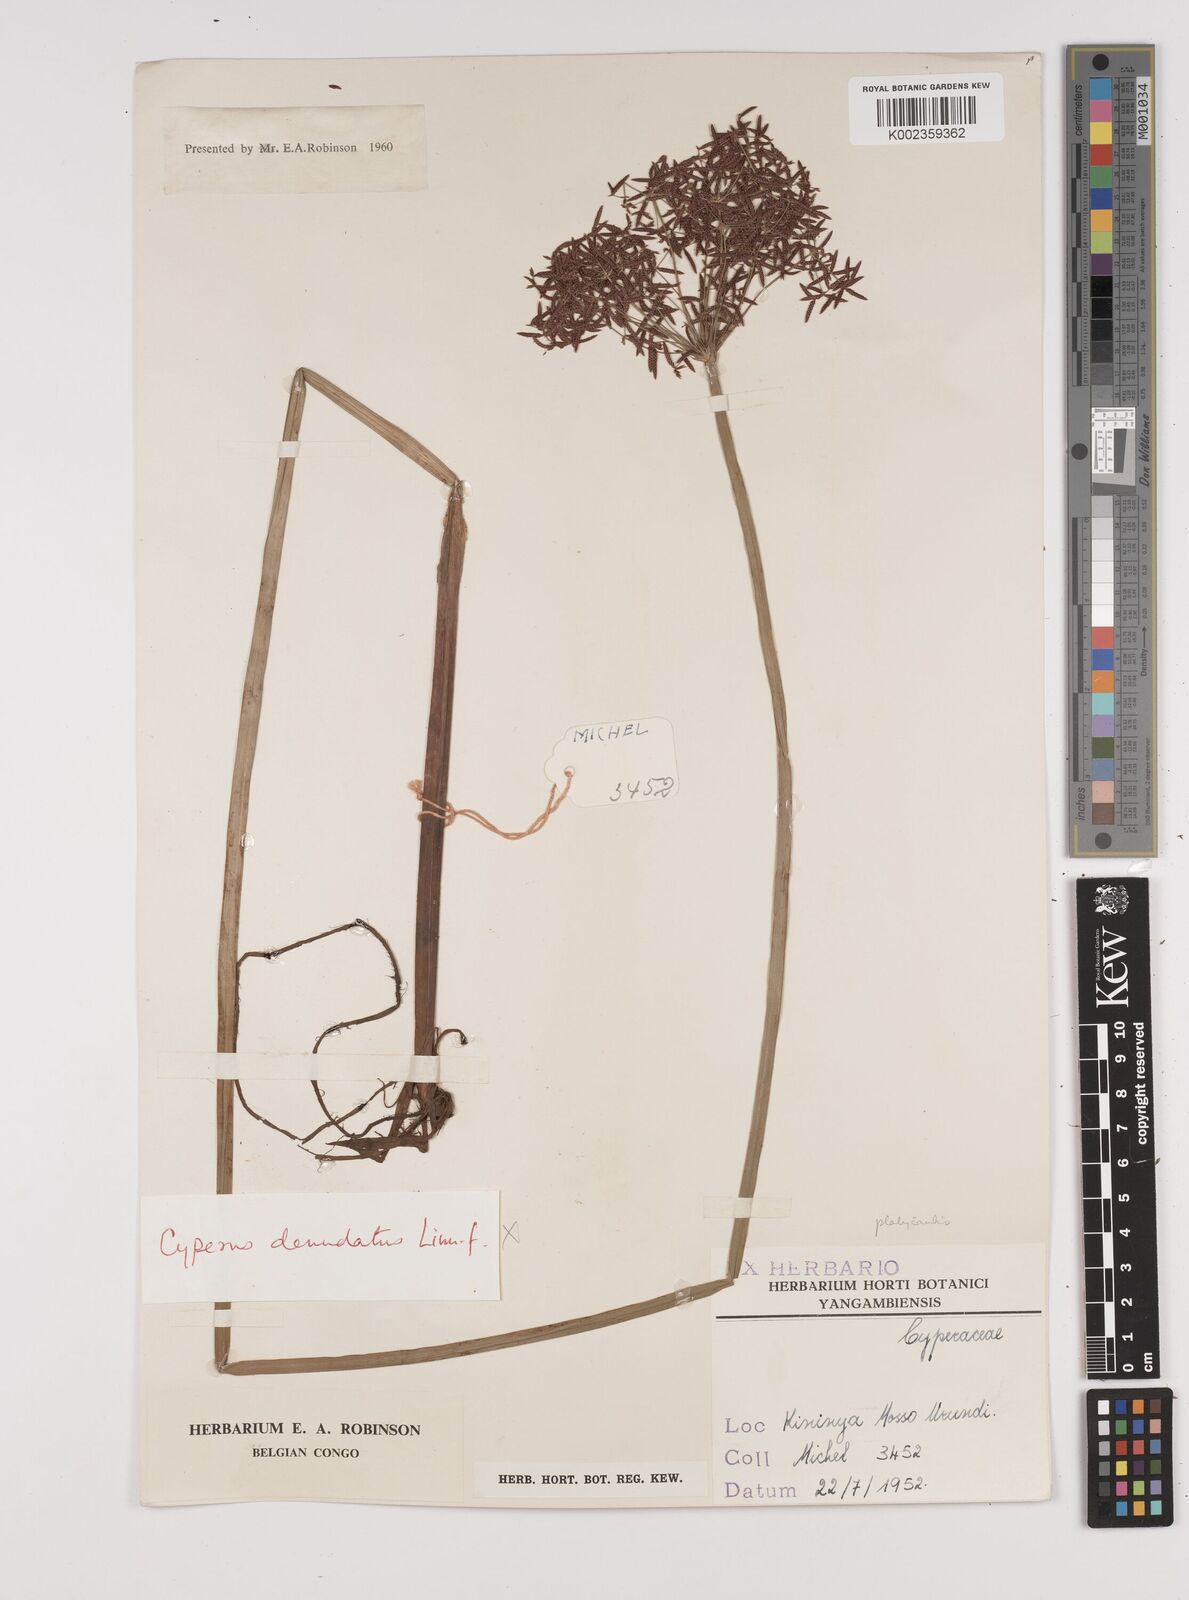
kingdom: Plantae
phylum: Tracheophyta
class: Liliopsida
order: Poales
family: Cyperaceae
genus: Cyperus
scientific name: Cyperus platycaulis
